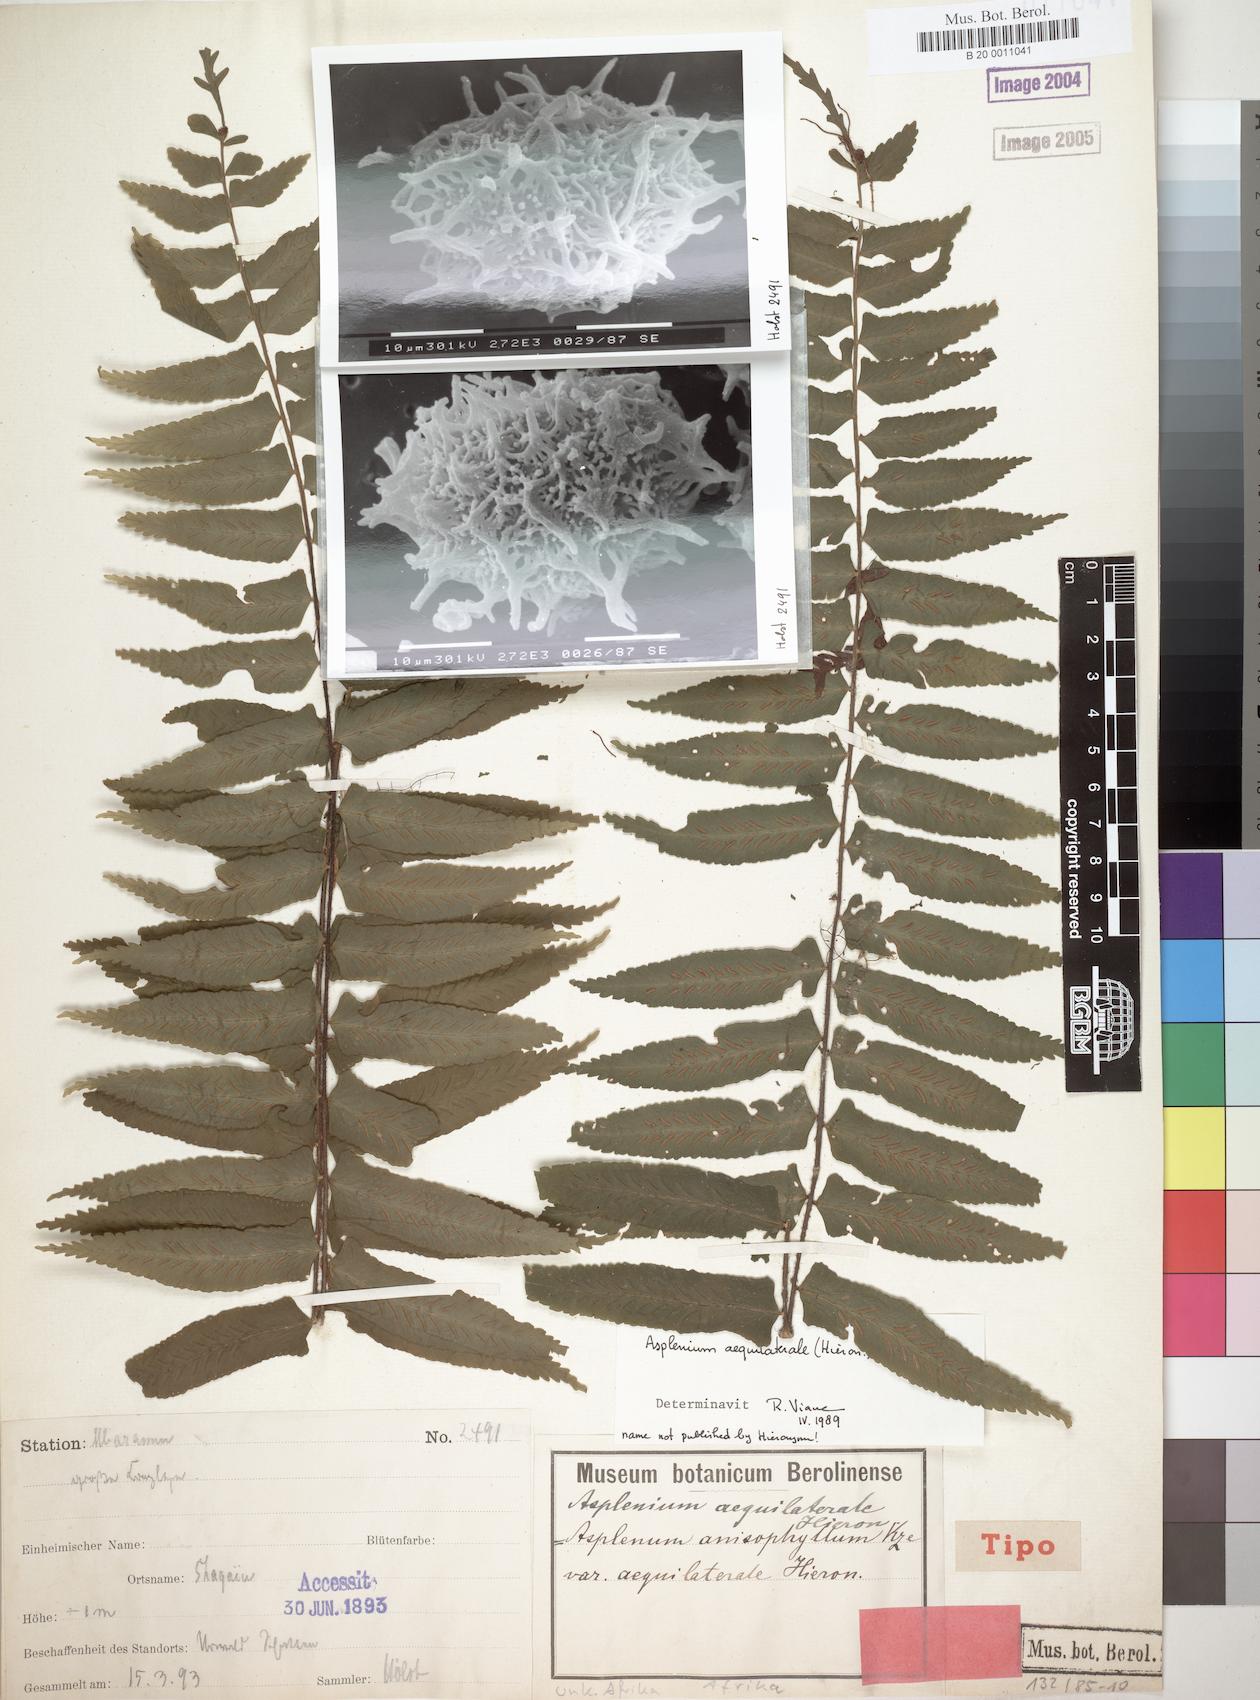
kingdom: Plantae
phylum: Tracheophyta
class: Polypodiopsida
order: Polypodiales
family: Aspleniaceae
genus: Asplenium
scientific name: Asplenium elliottii
